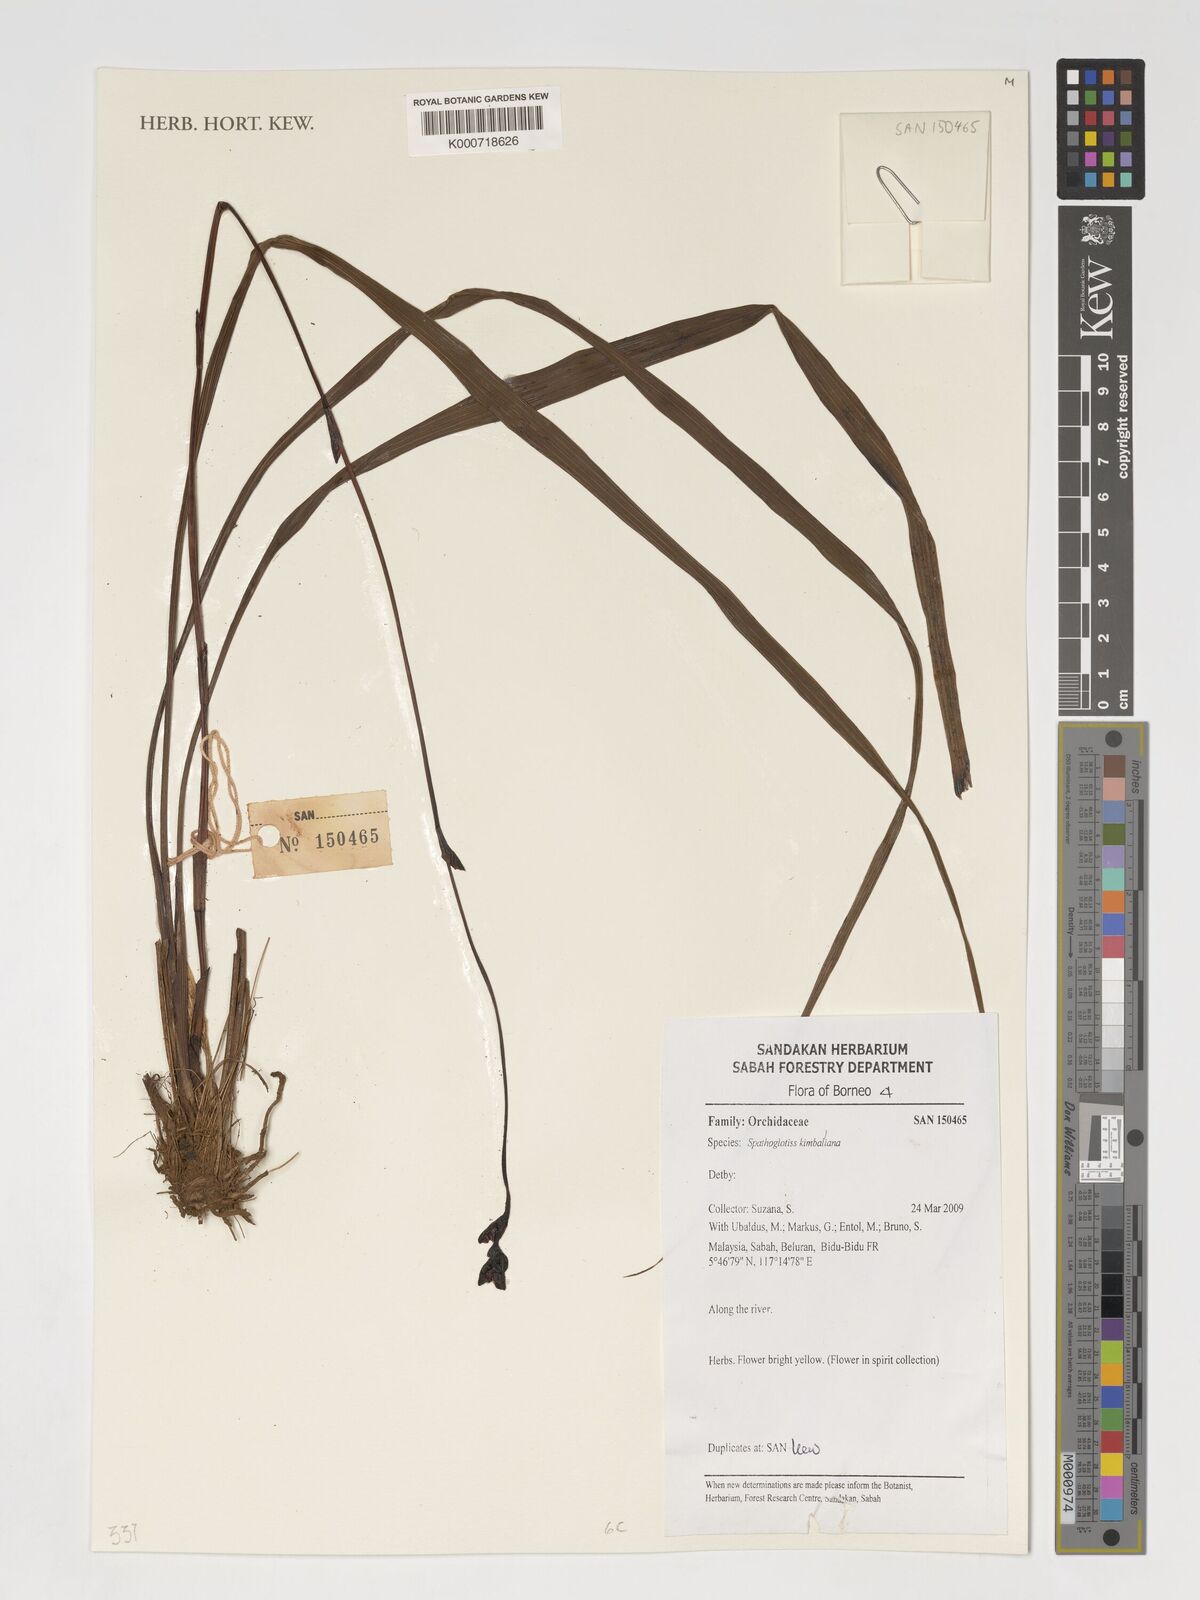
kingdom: Plantae
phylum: Tracheophyta
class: Liliopsida
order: Asparagales
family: Orchidaceae
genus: Spathoglottis
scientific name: Spathoglottis kimballiana
